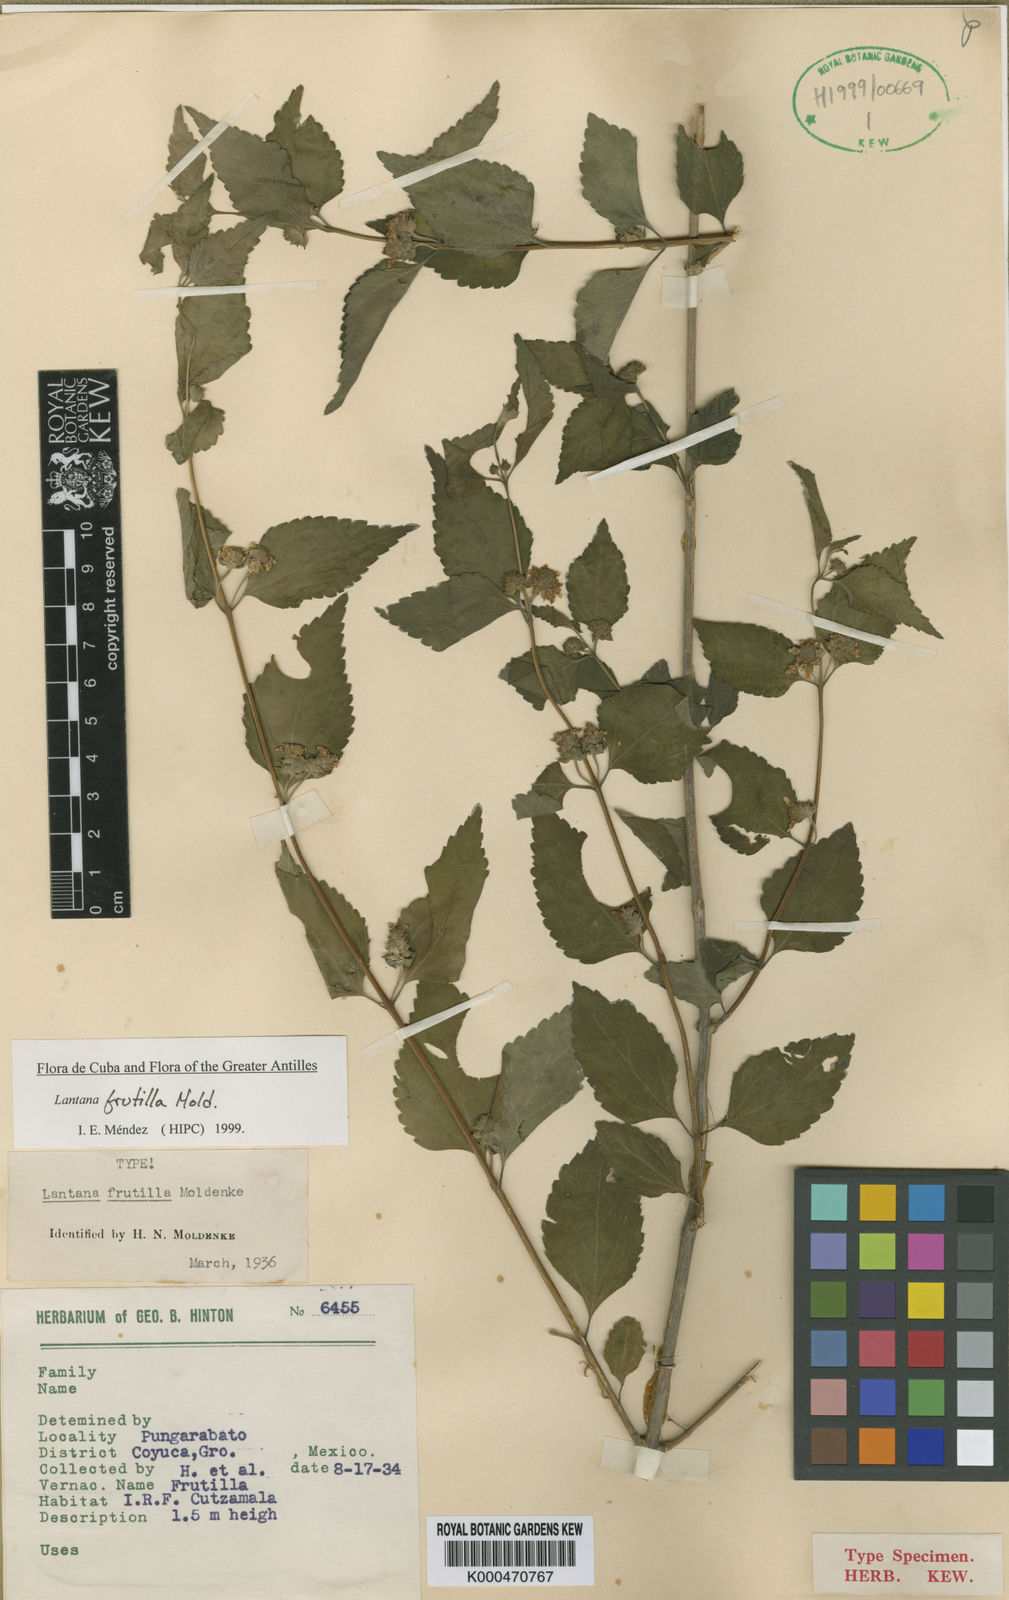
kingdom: Plantae
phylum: Tracheophyta
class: Magnoliopsida
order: Lamiales
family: Verbenaceae
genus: Lantana
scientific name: Lantana velutina
